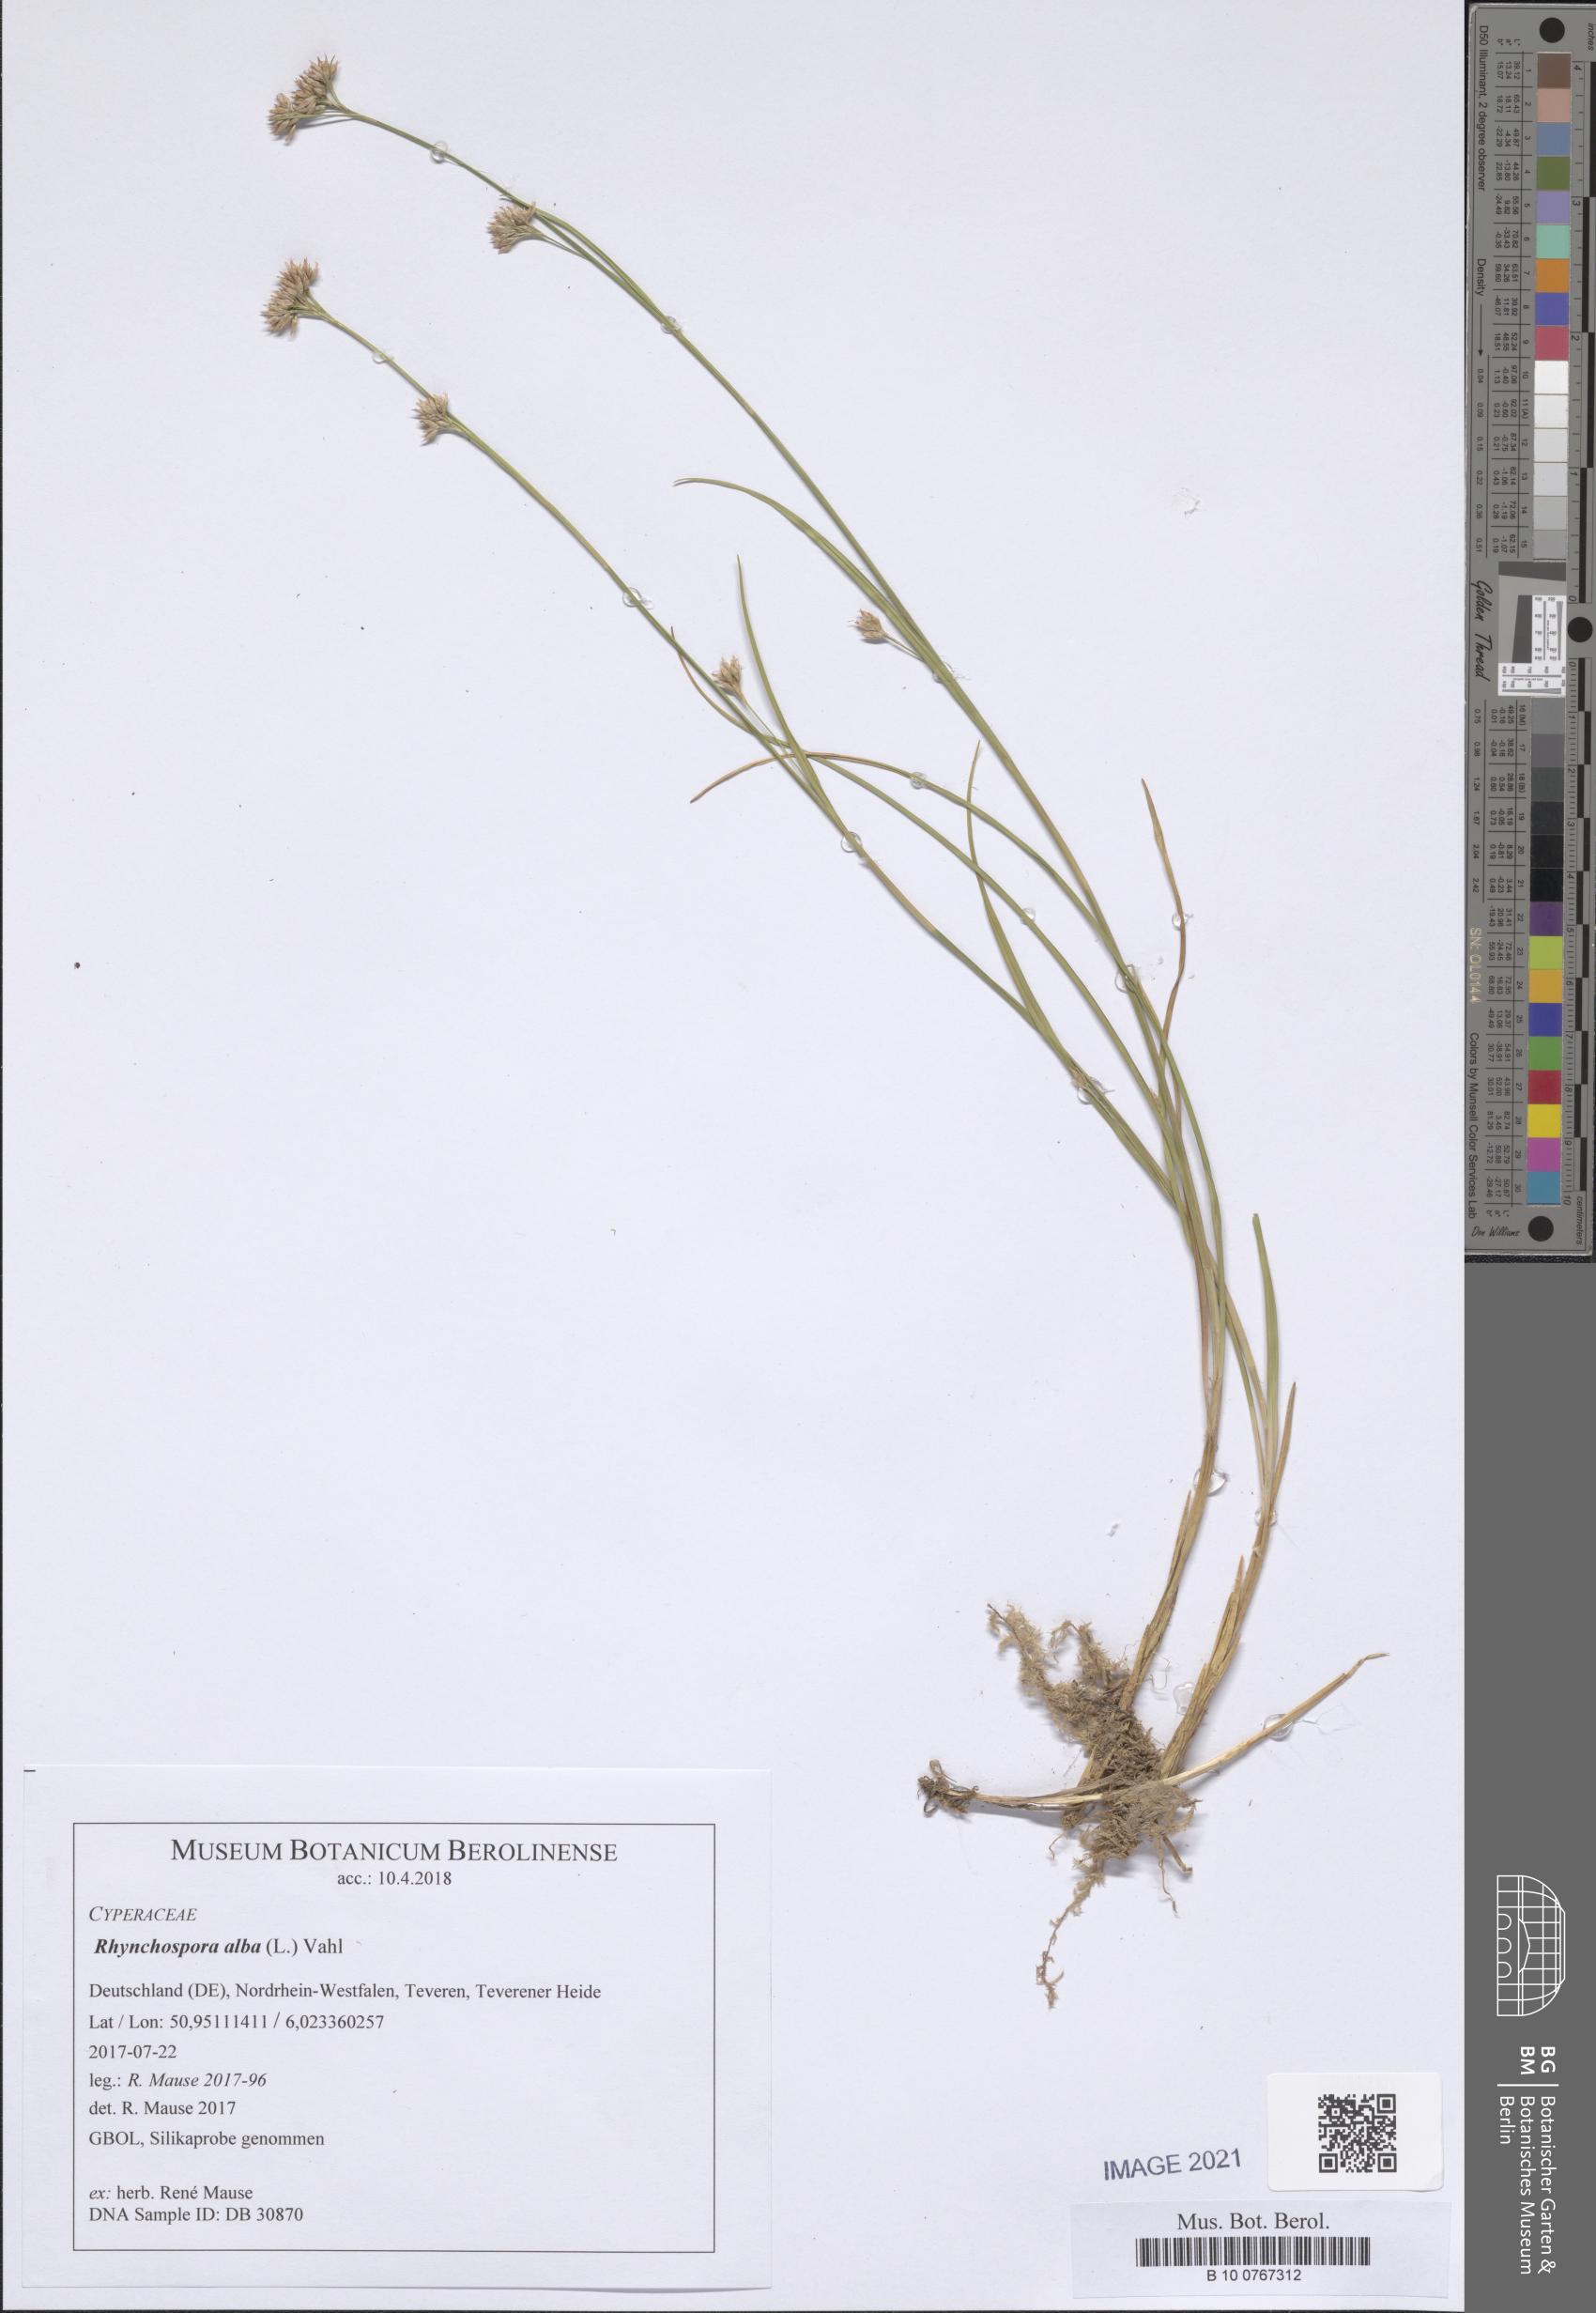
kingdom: Plantae
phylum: Tracheophyta
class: Liliopsida
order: Poales
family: Cyperaceae
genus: Rhynchospora
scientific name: Rhynchospora alba
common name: White beak-sedge
